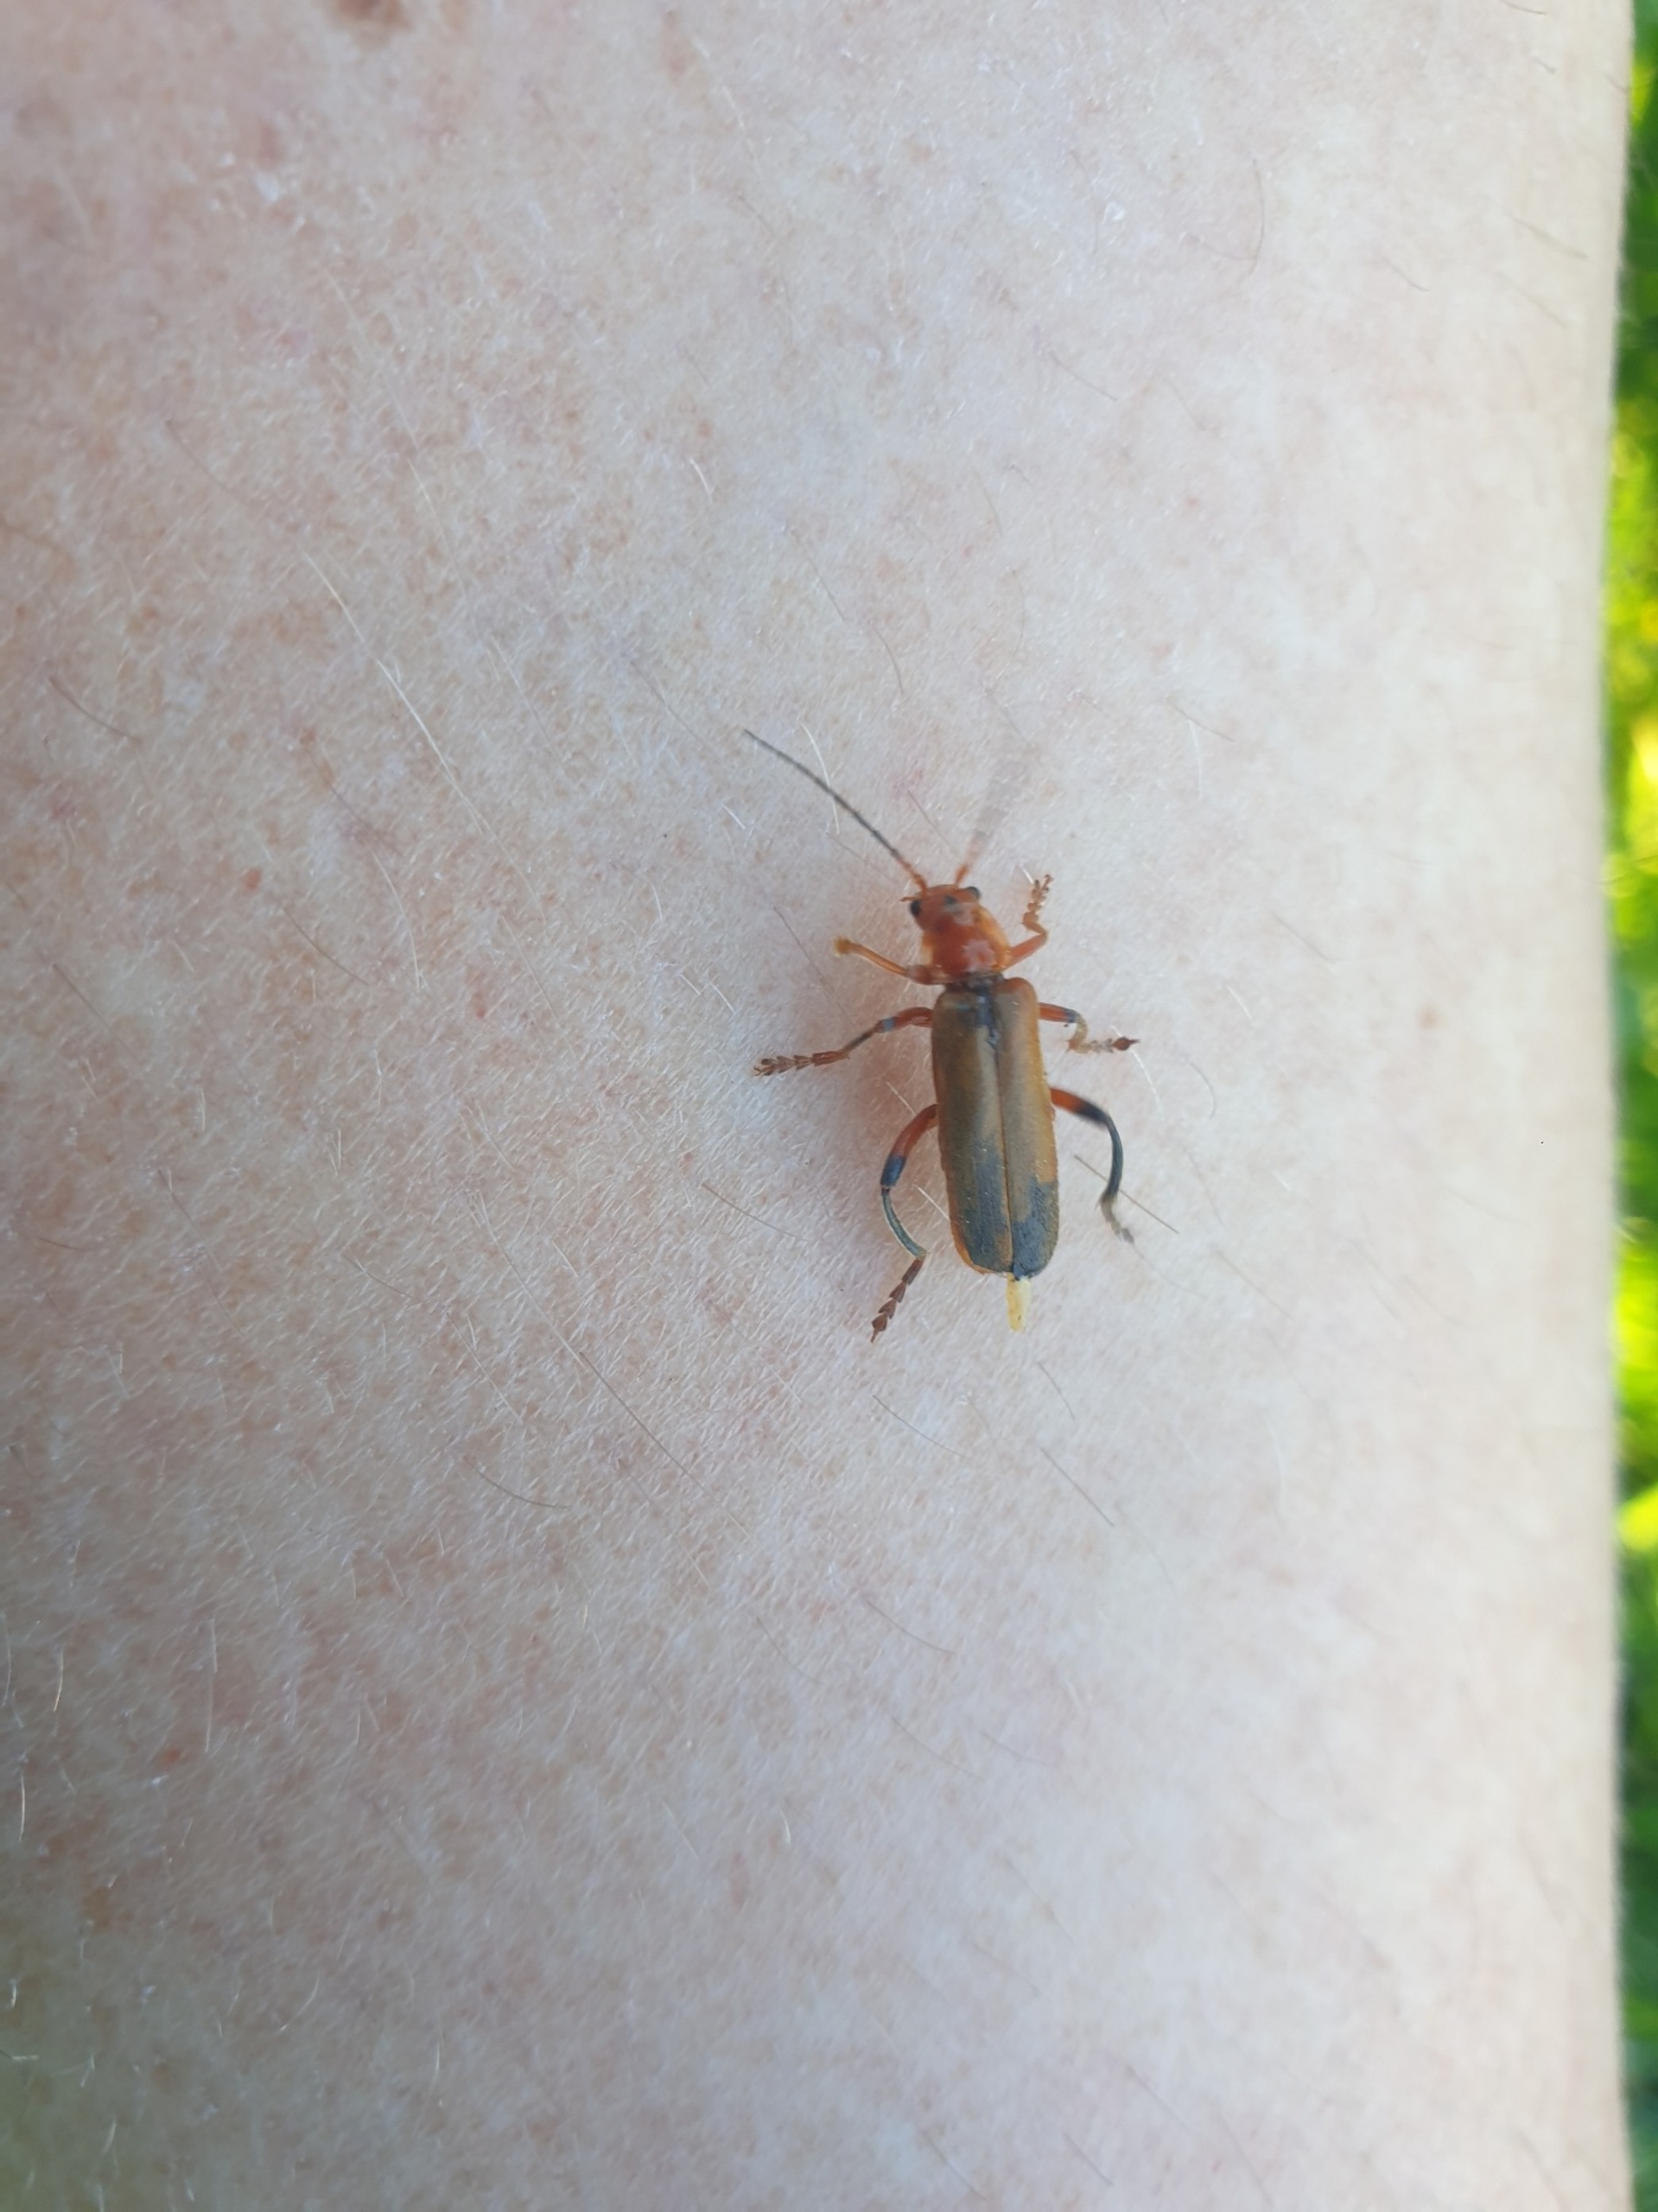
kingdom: Animalia
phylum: Arthropoda
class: Insecta
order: Coleoptera
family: Cantharidae
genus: Cantharis
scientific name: Cantharis livida
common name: Gul blødvinge
